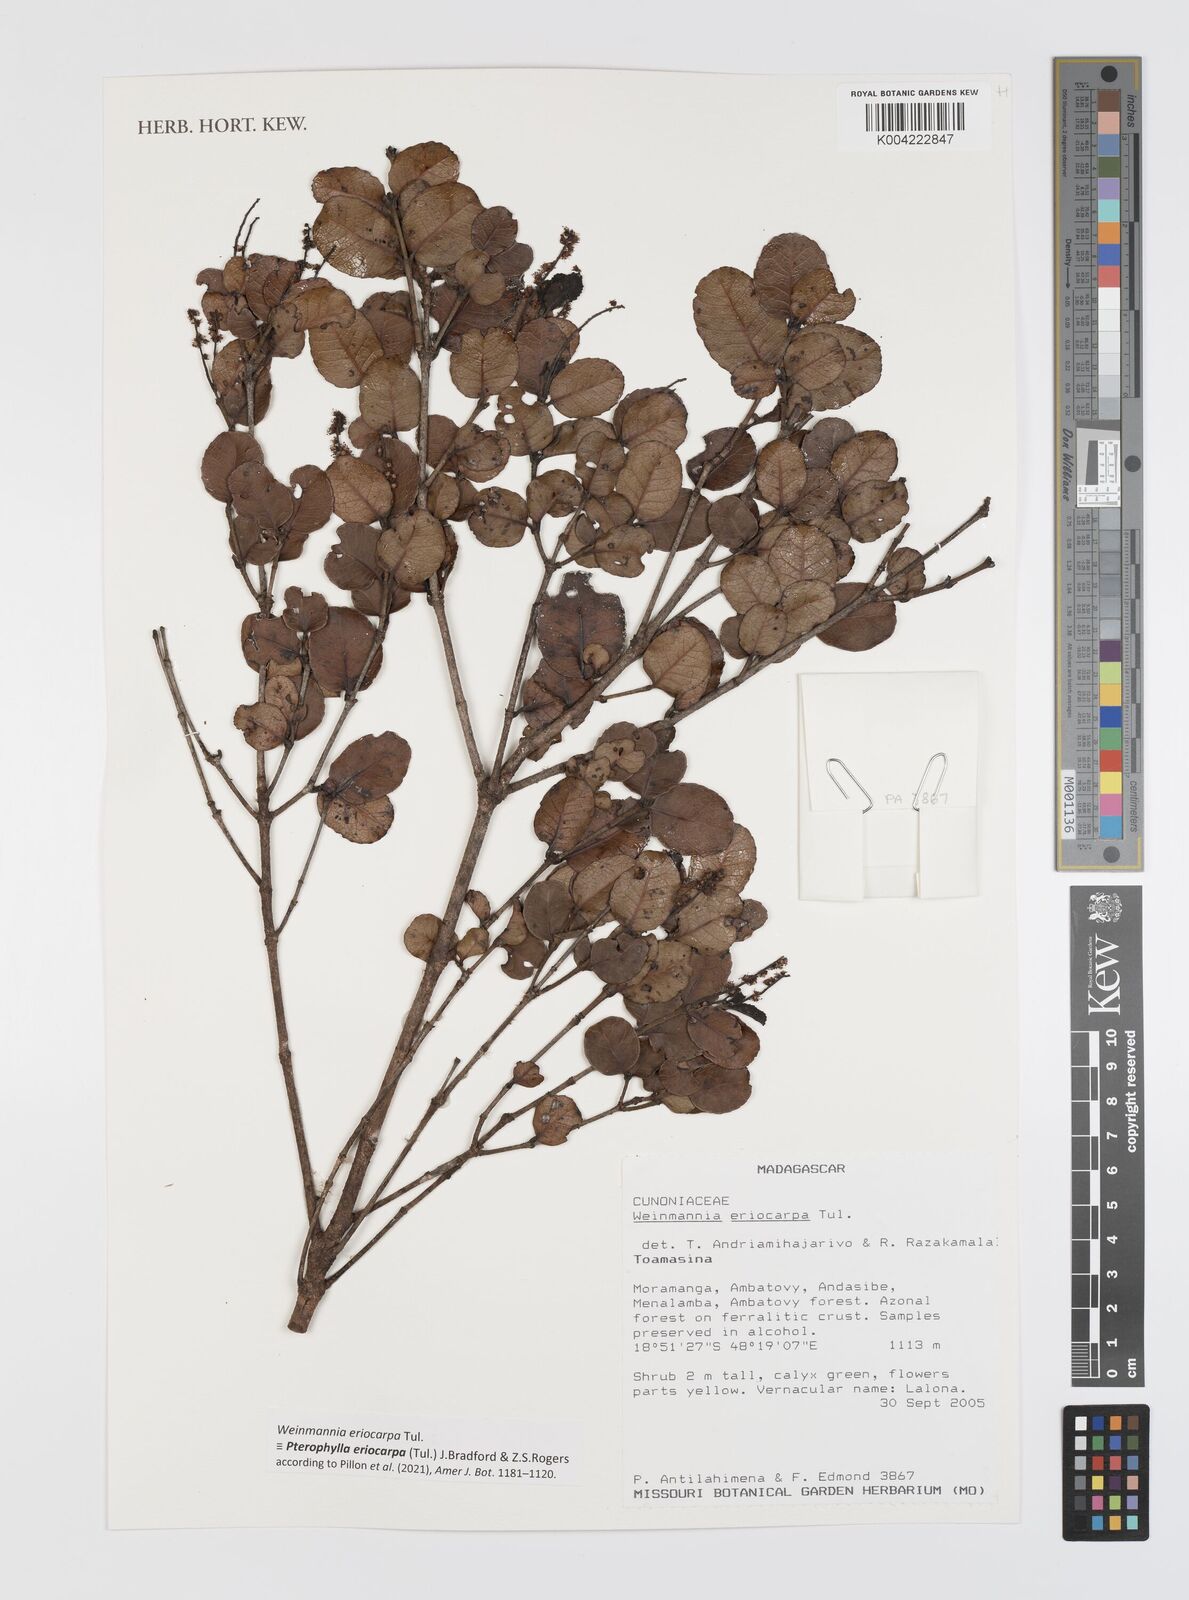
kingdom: Plantae
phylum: Tracheophyta
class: Magnoliopsida
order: Oxalidales
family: Cunoniaceae
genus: Pterophylla
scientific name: Pterophylla eriocarpa
